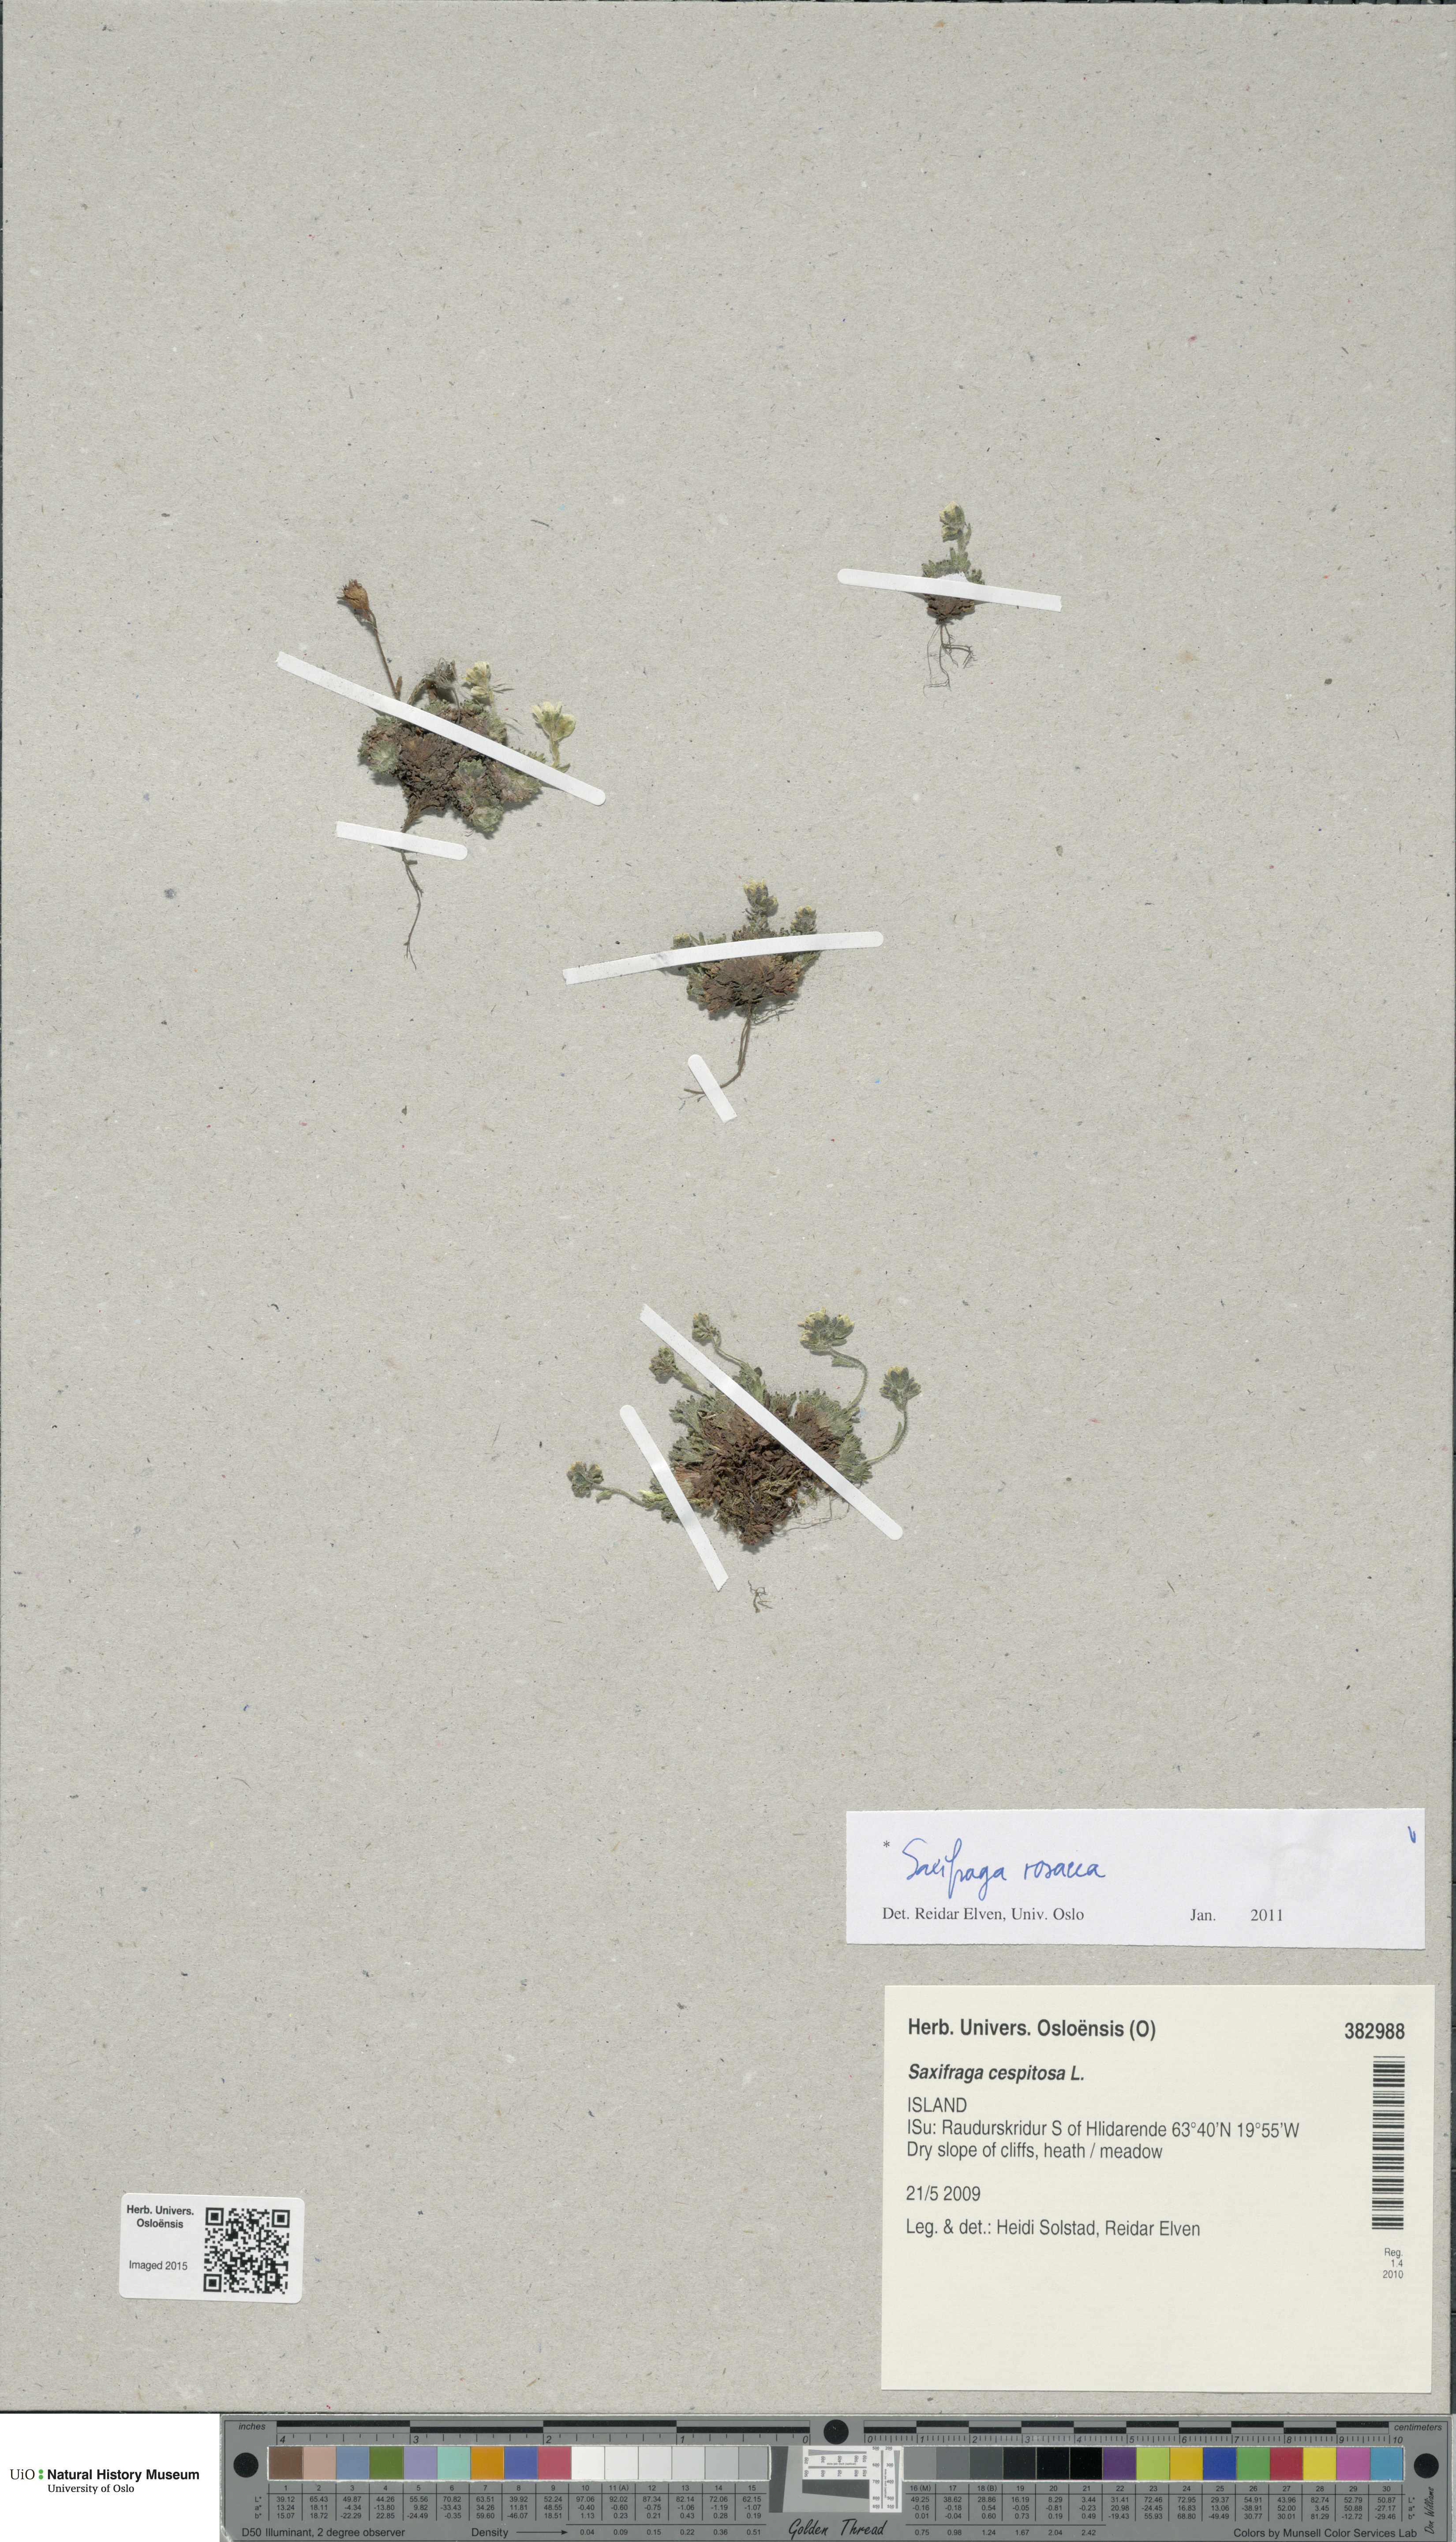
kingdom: Plantae
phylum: Tracheophyta
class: Magnoliopsida
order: Saxifragales
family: Saxifragaceae
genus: Saxifraga
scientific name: Saxifraga rosacea
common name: Irish saxifrage
